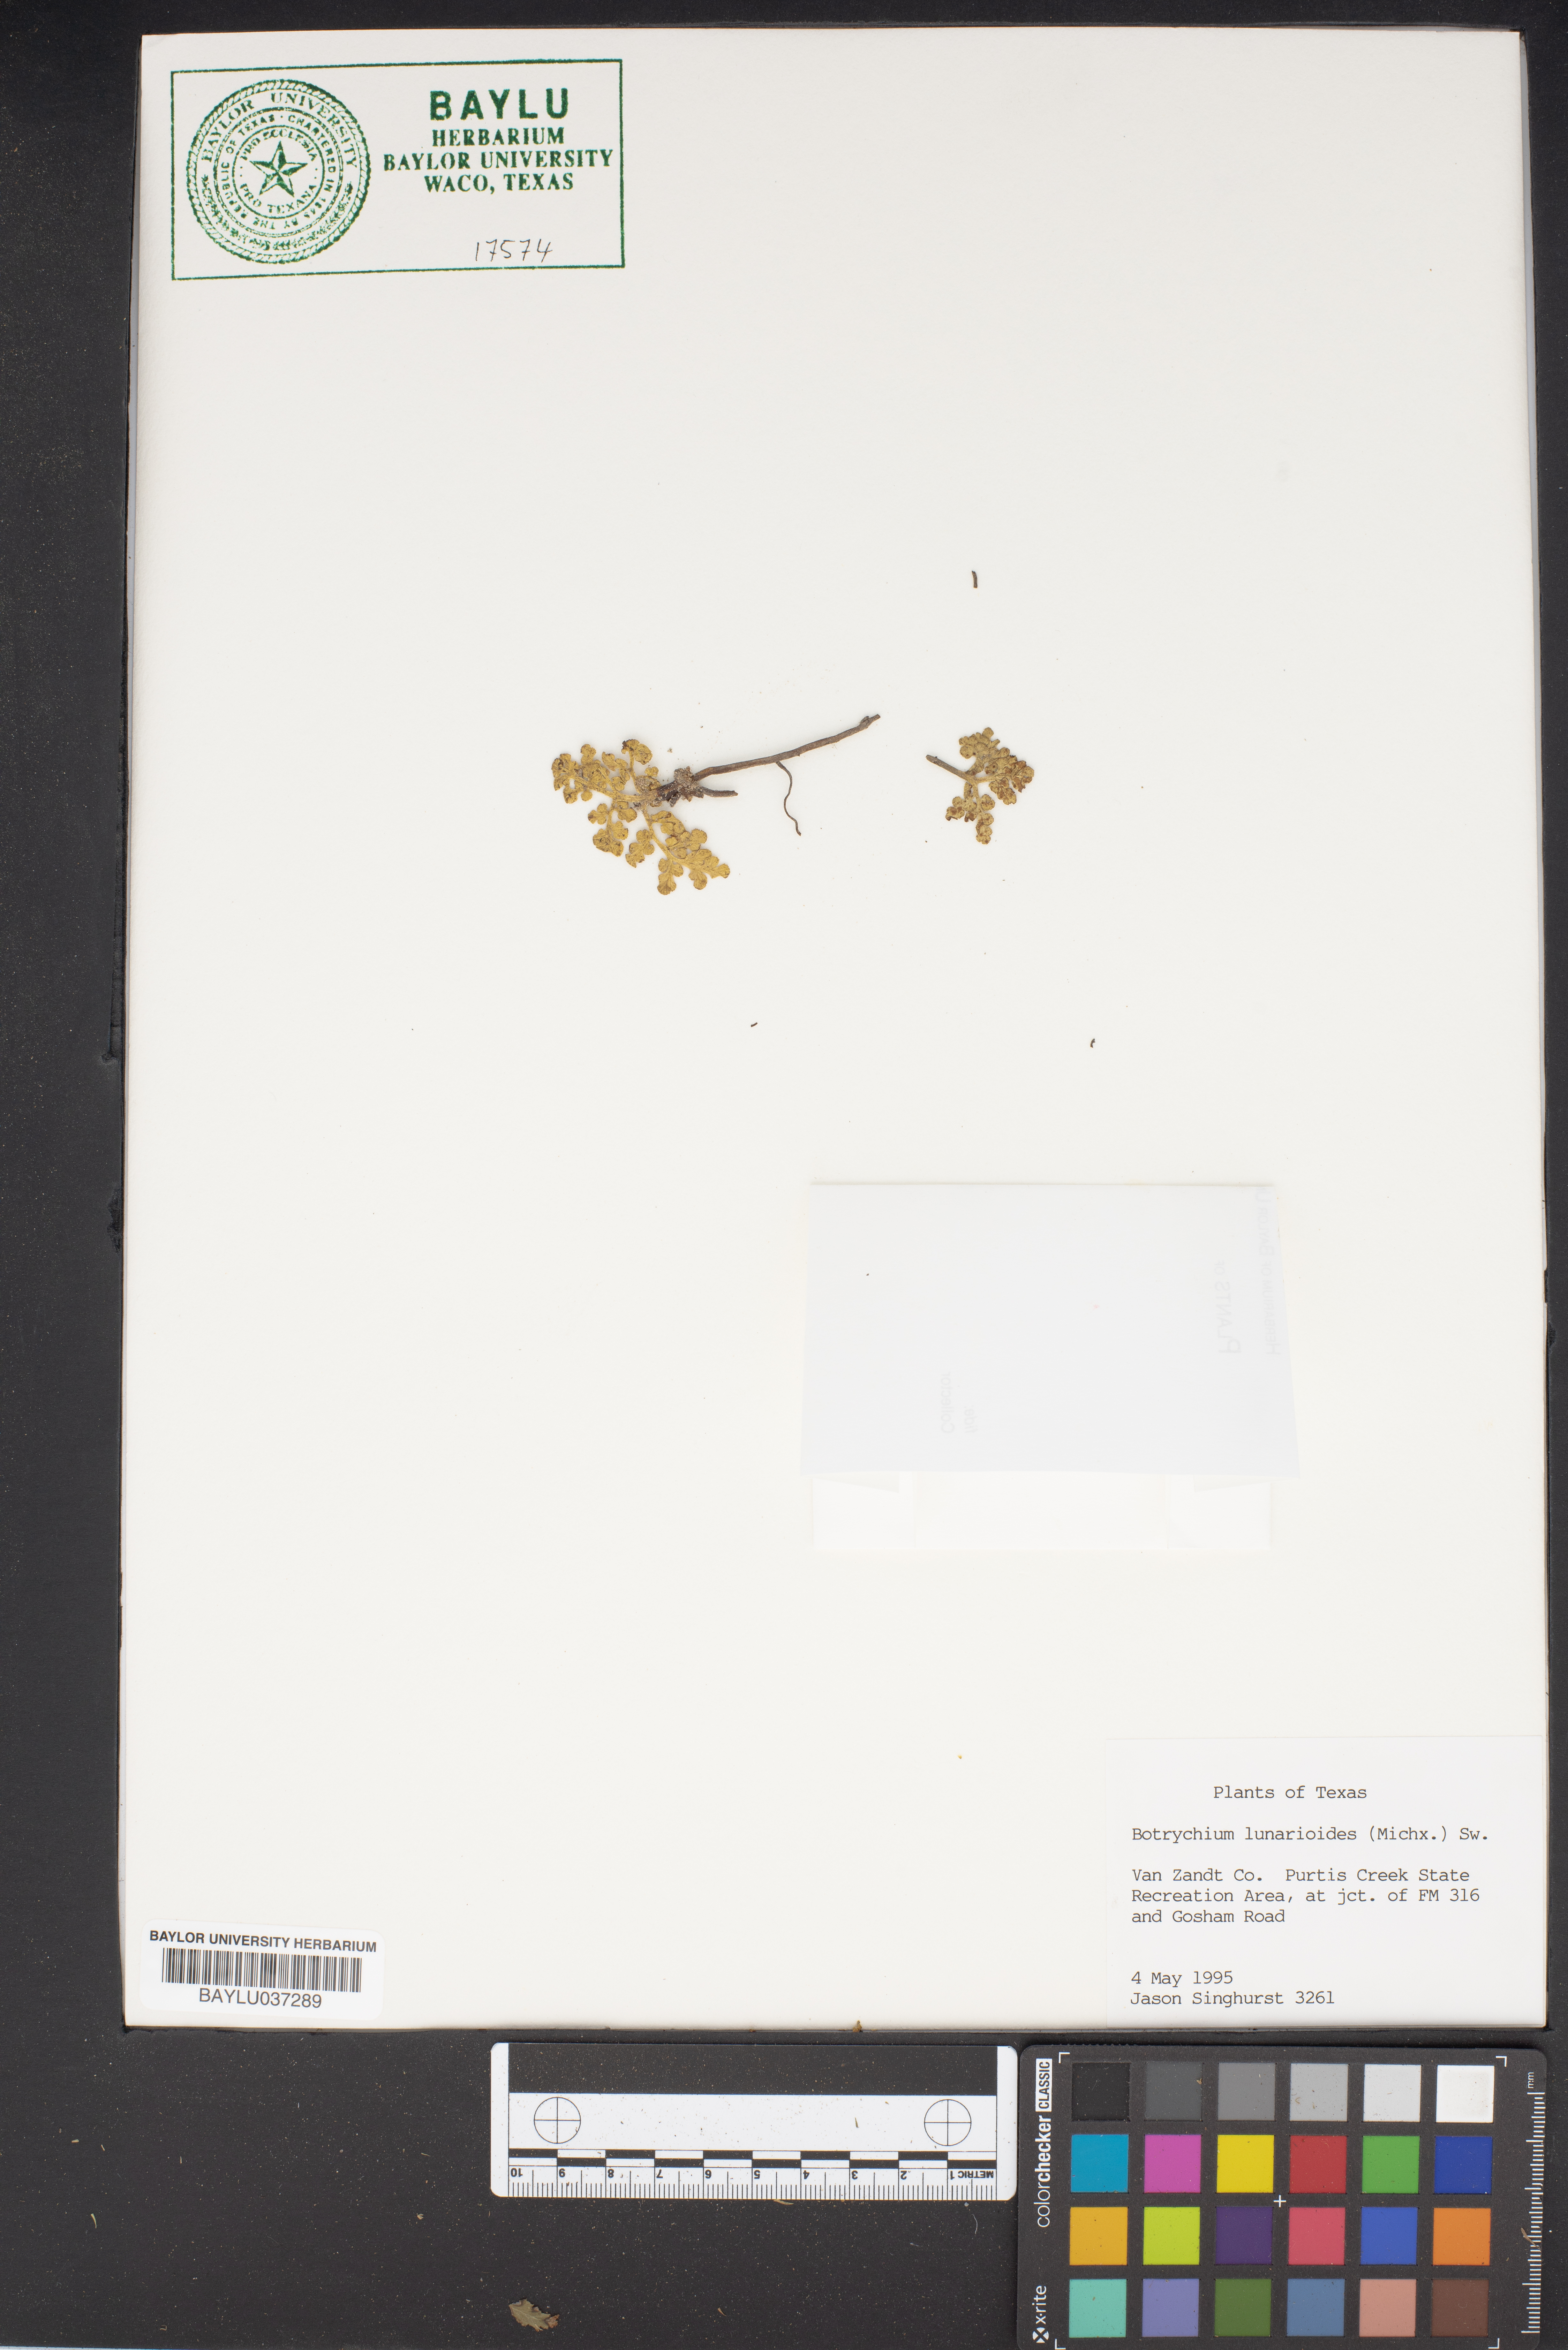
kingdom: Plantae
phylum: Tracheophyta
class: Polypodiopsida
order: Ophioglossales
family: Ophioglossaceae
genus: Sceptridium
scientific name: Sceptridium lunarioides
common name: Prostrate grapefern
